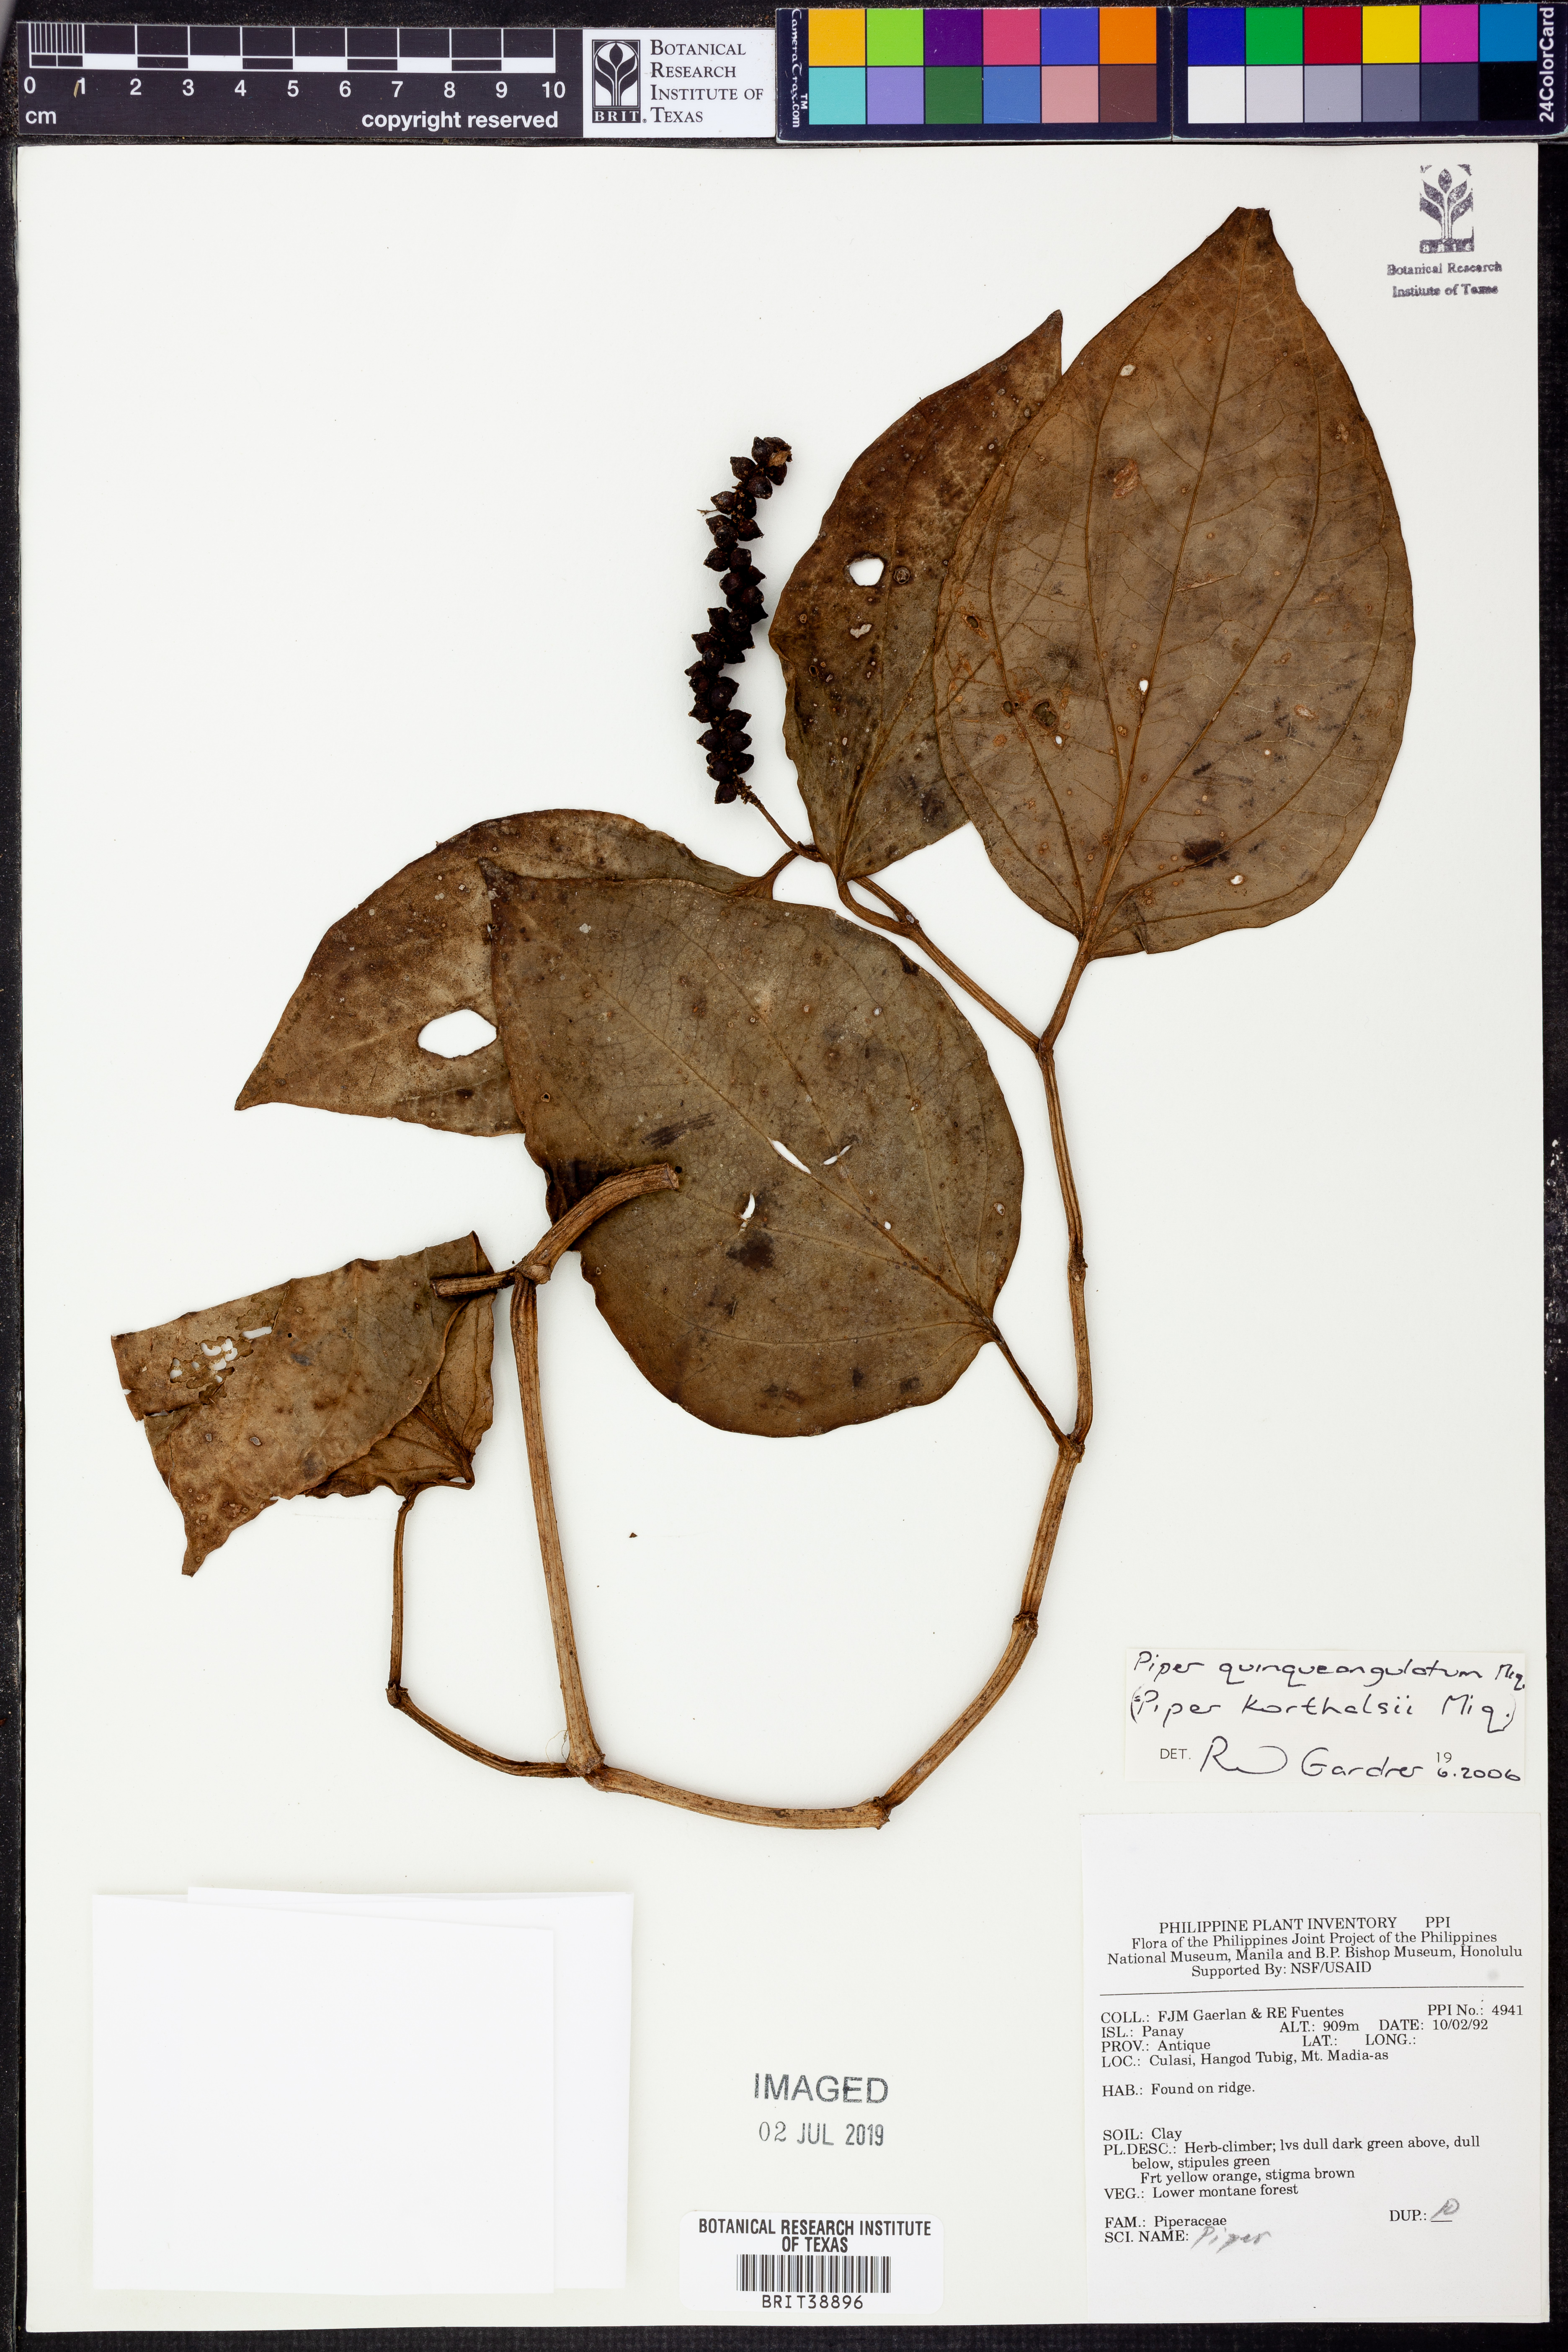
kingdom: Plantae
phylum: Tracheophyta
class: Magnoliopsida
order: Piperales
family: Piperaceae
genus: Piper
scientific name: Piper quinqueangulatum
